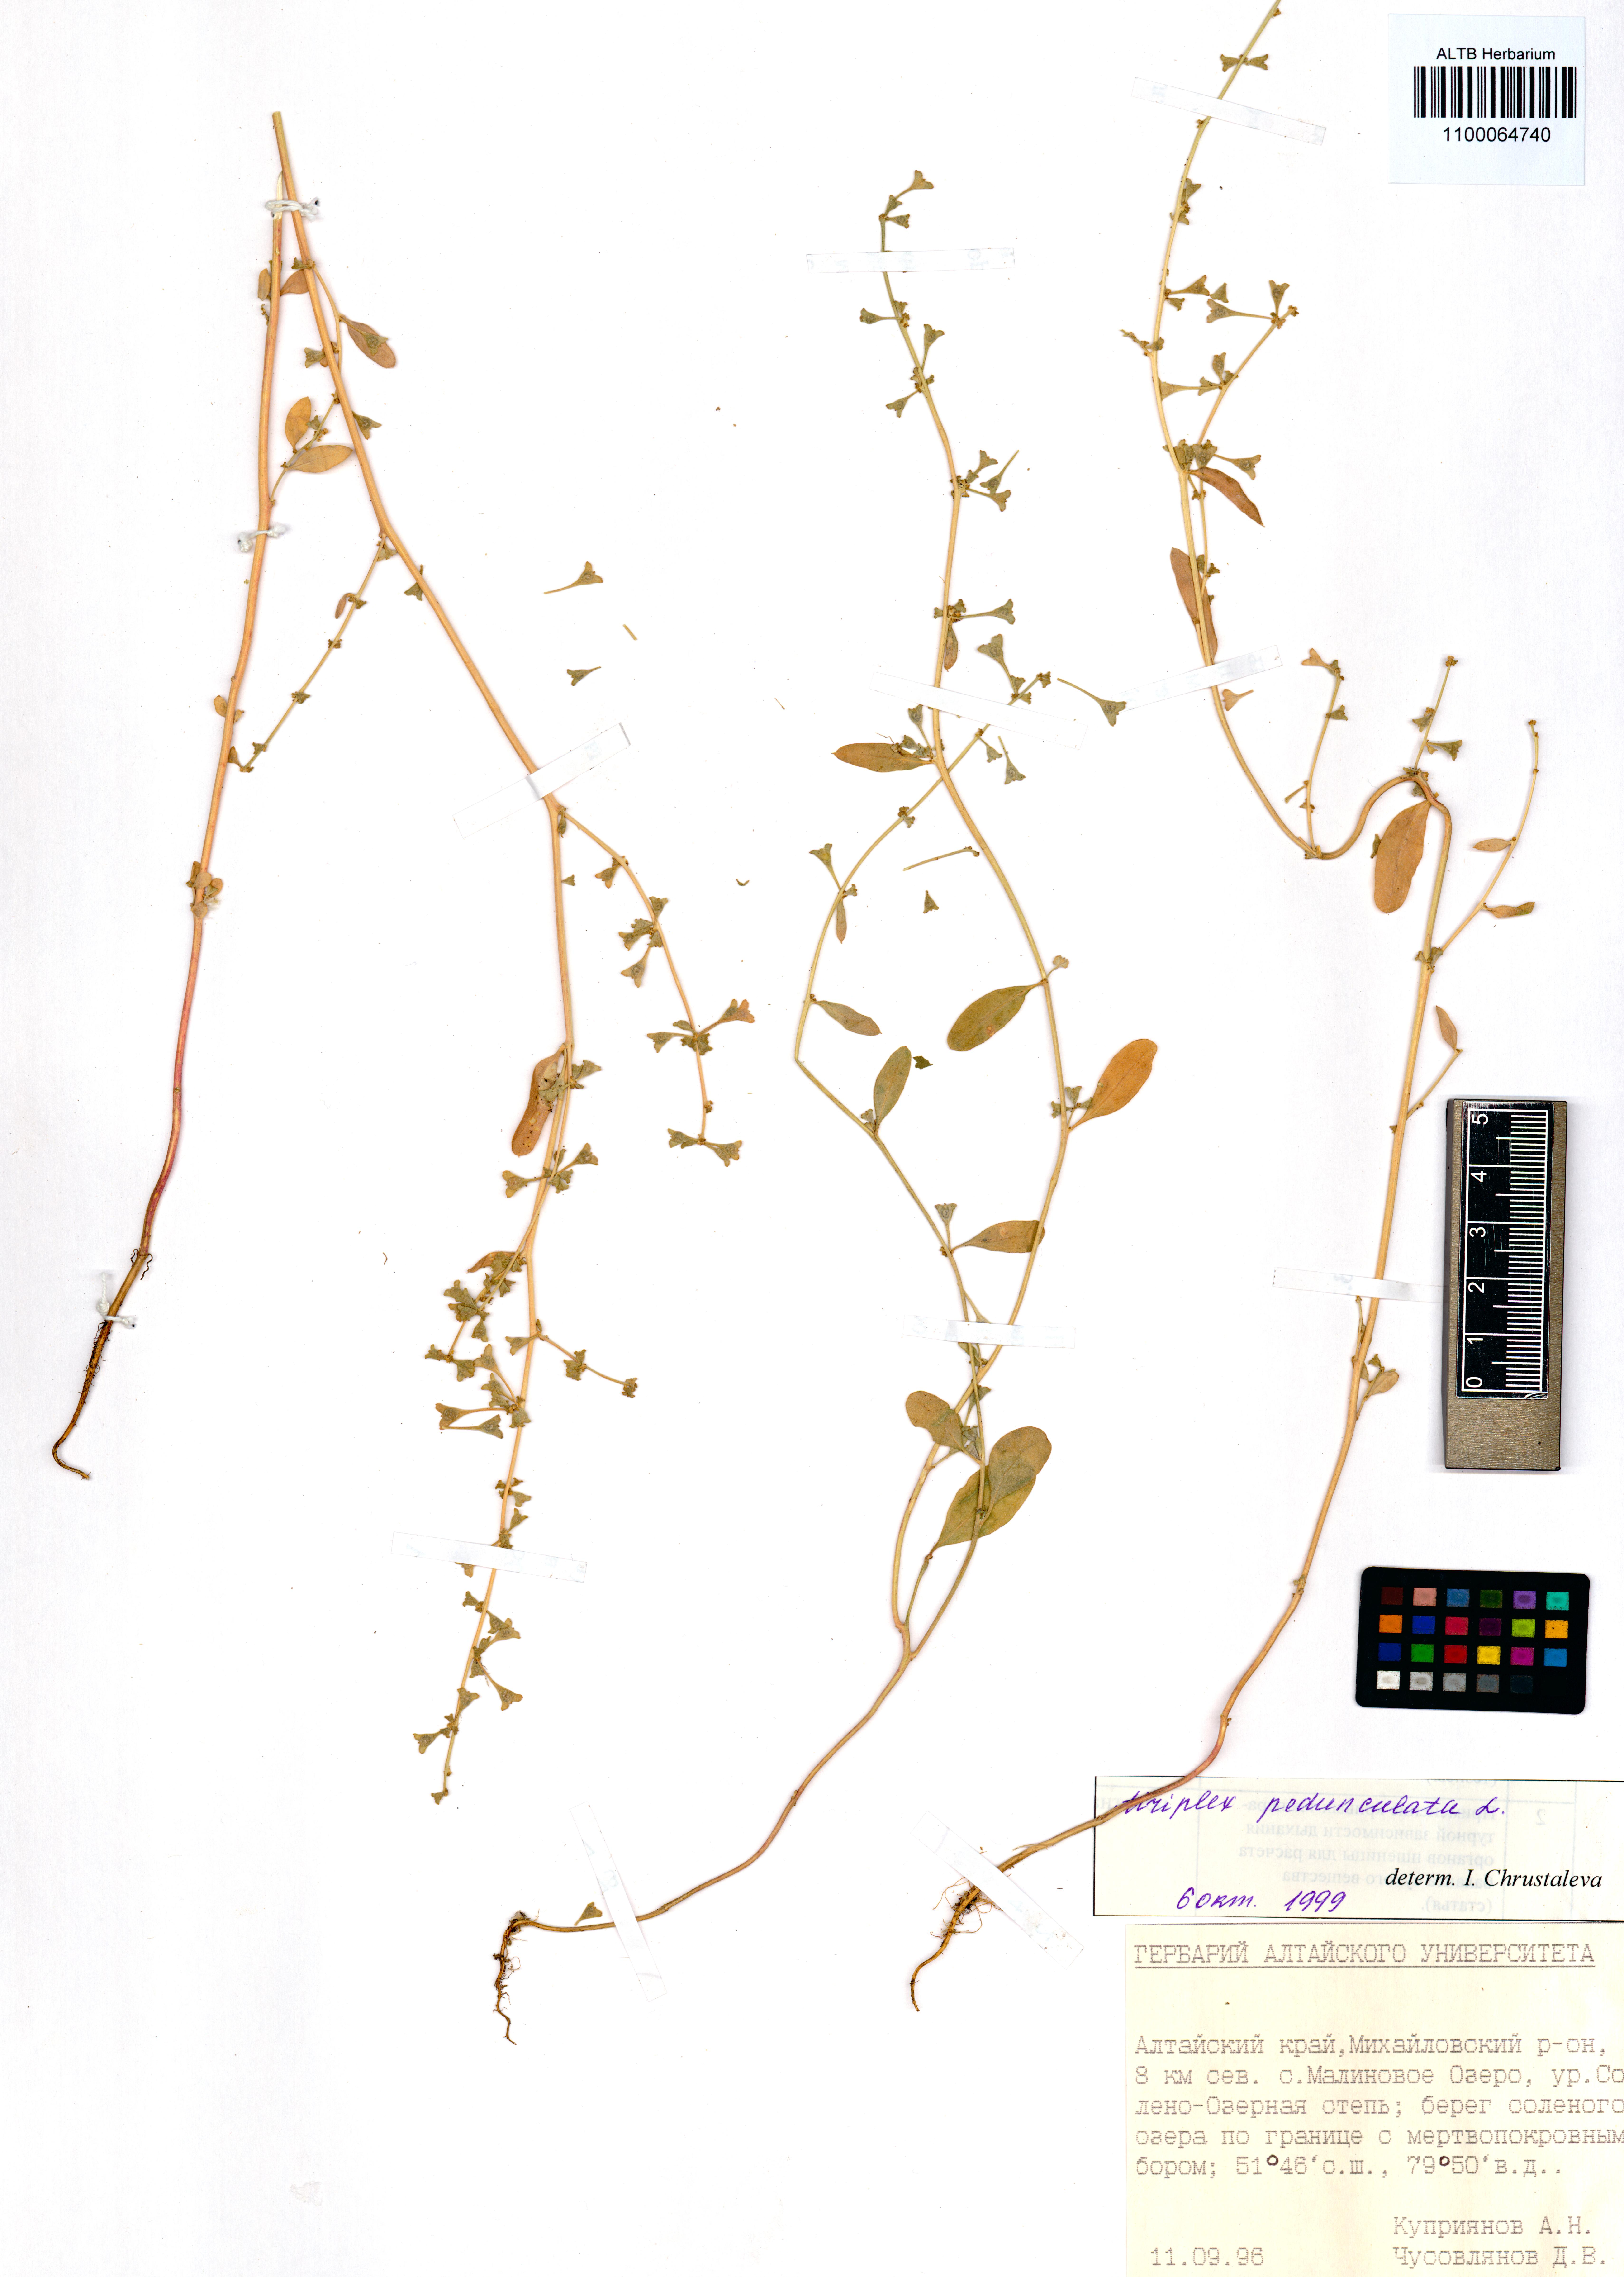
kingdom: Plantae
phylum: Tracheophyta
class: Magnoliopsida
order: Caryophyllales
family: Amaranthaceae
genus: Halimione
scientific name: Halimione pedunculata
